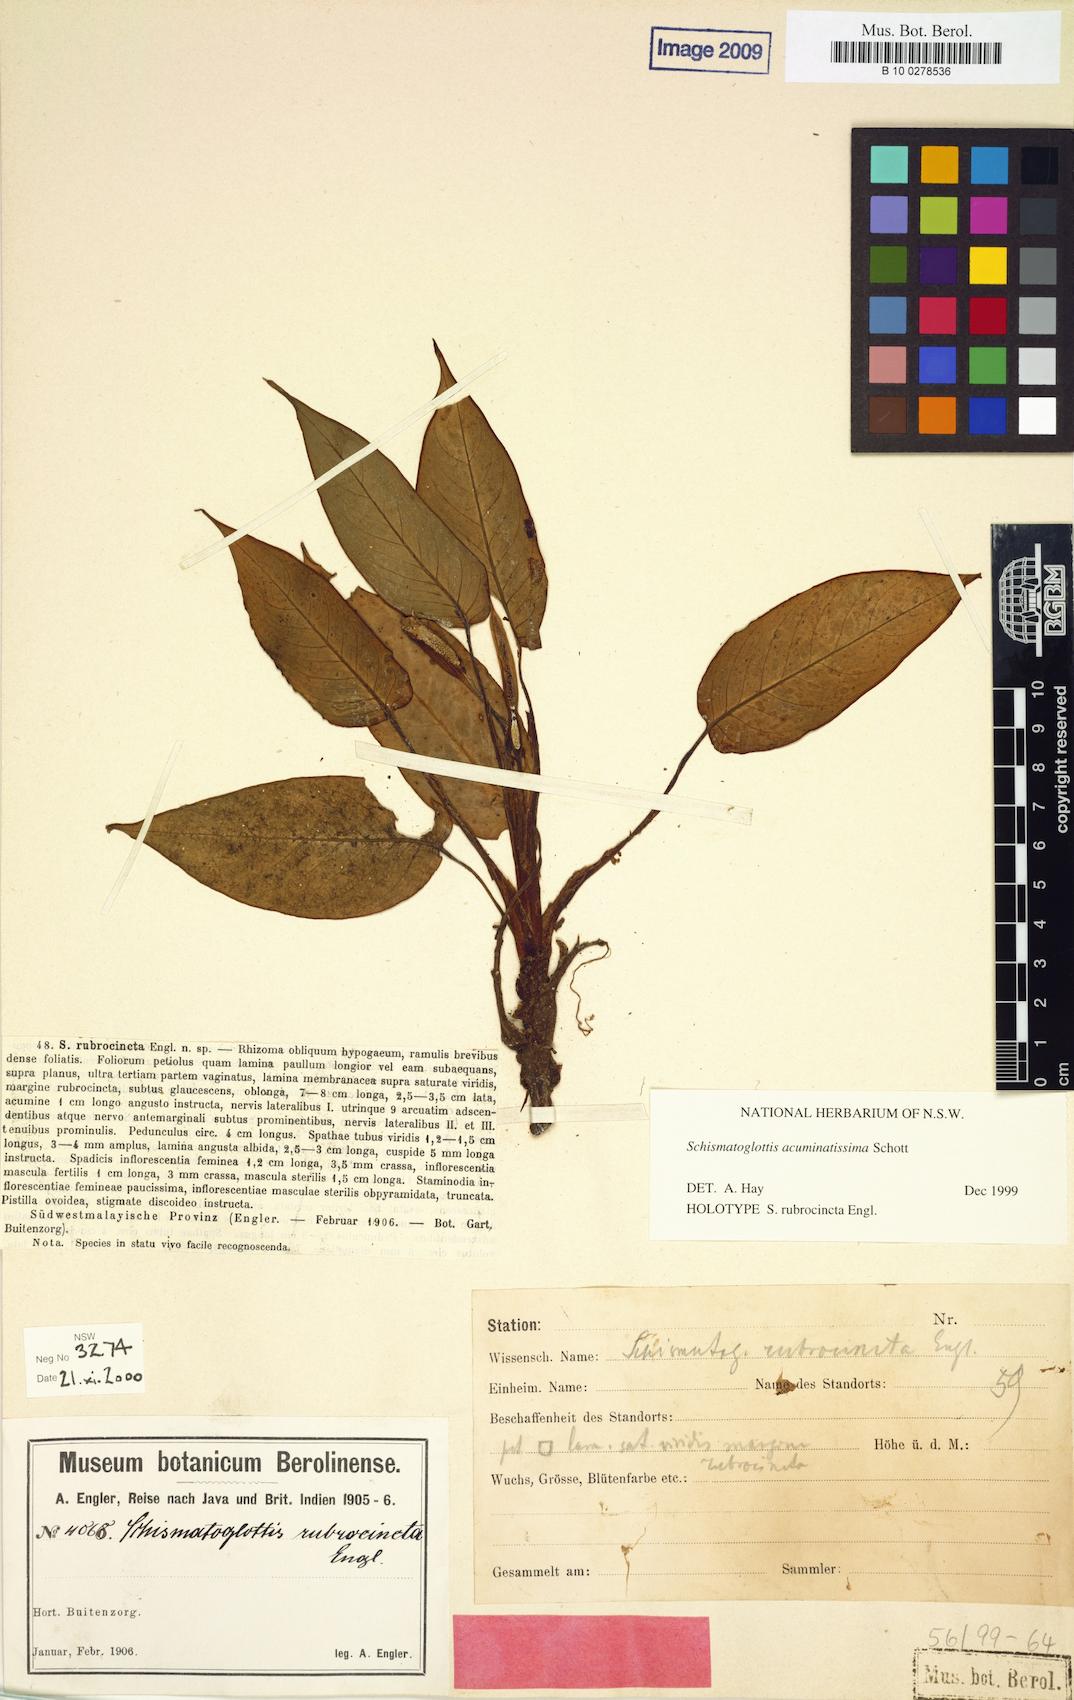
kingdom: Plantae
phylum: Tracheophyta
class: Liliopsida
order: Alismatales
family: Araceae
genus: Apoballis
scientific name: Apoballis acuminatissima
